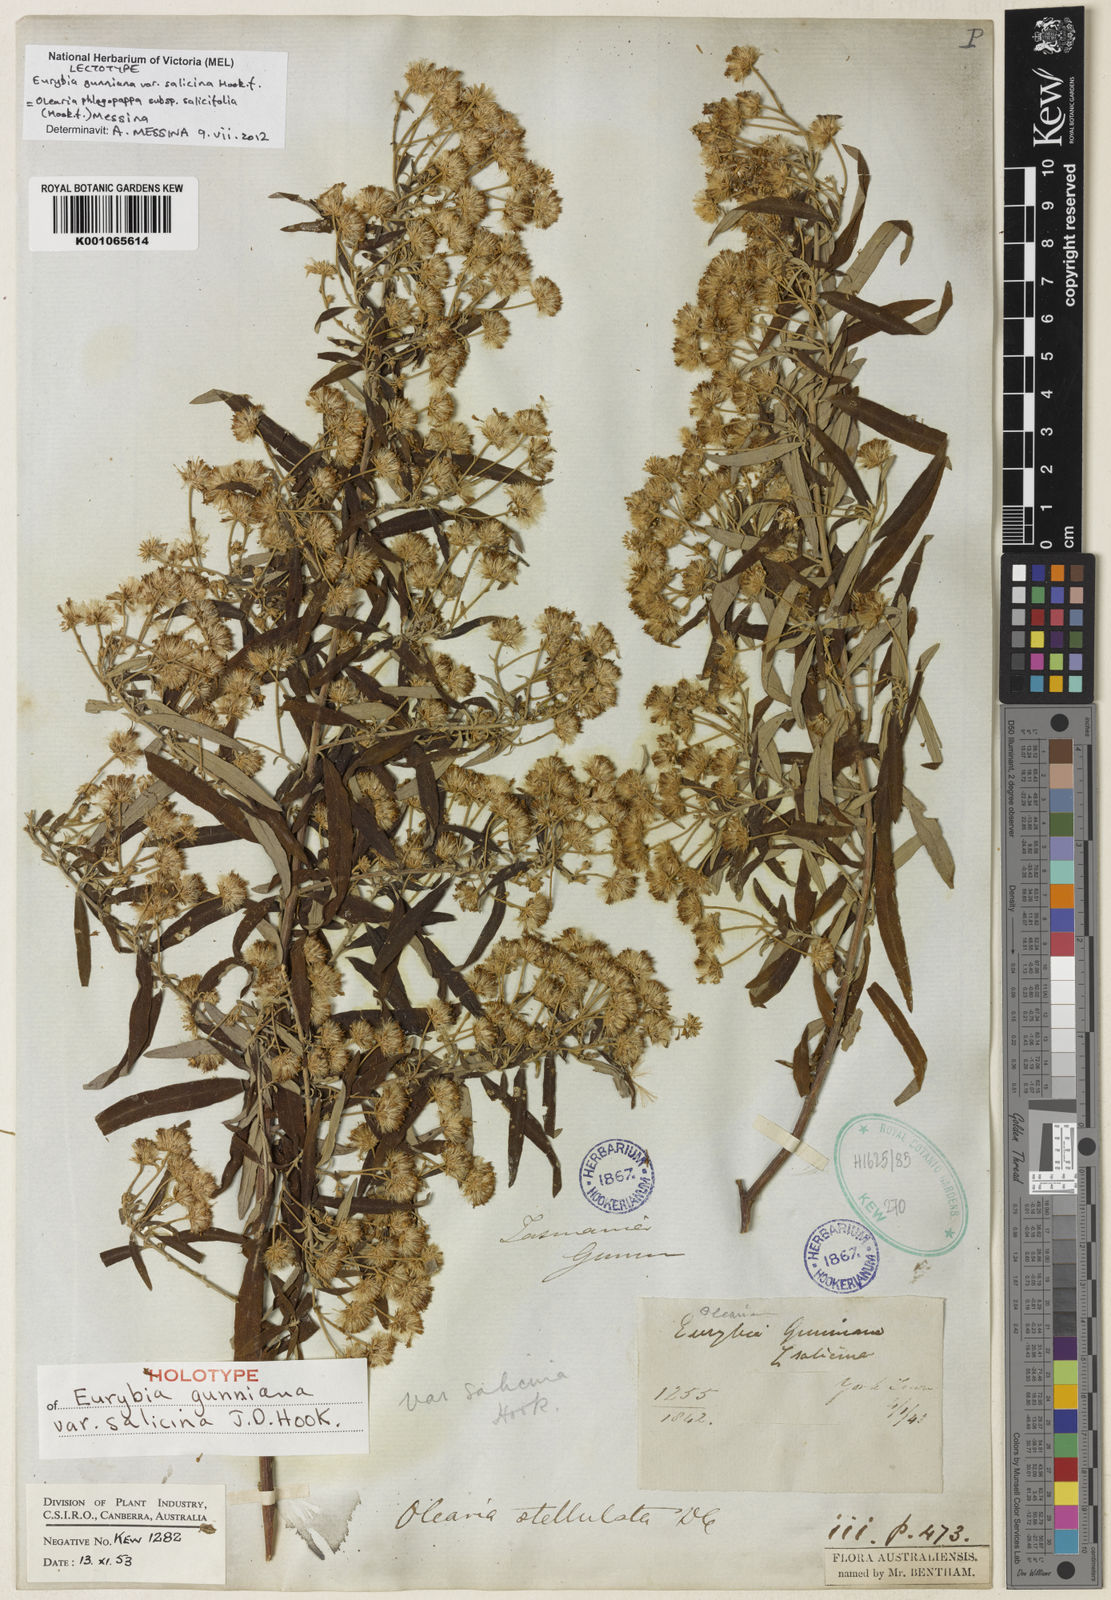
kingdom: Plantae
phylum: Tracheophyta
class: Magnoliopsida
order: Asterales
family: Asteraceae
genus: Olearia
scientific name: Olearia phlogopappa
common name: Alpine daisybush
